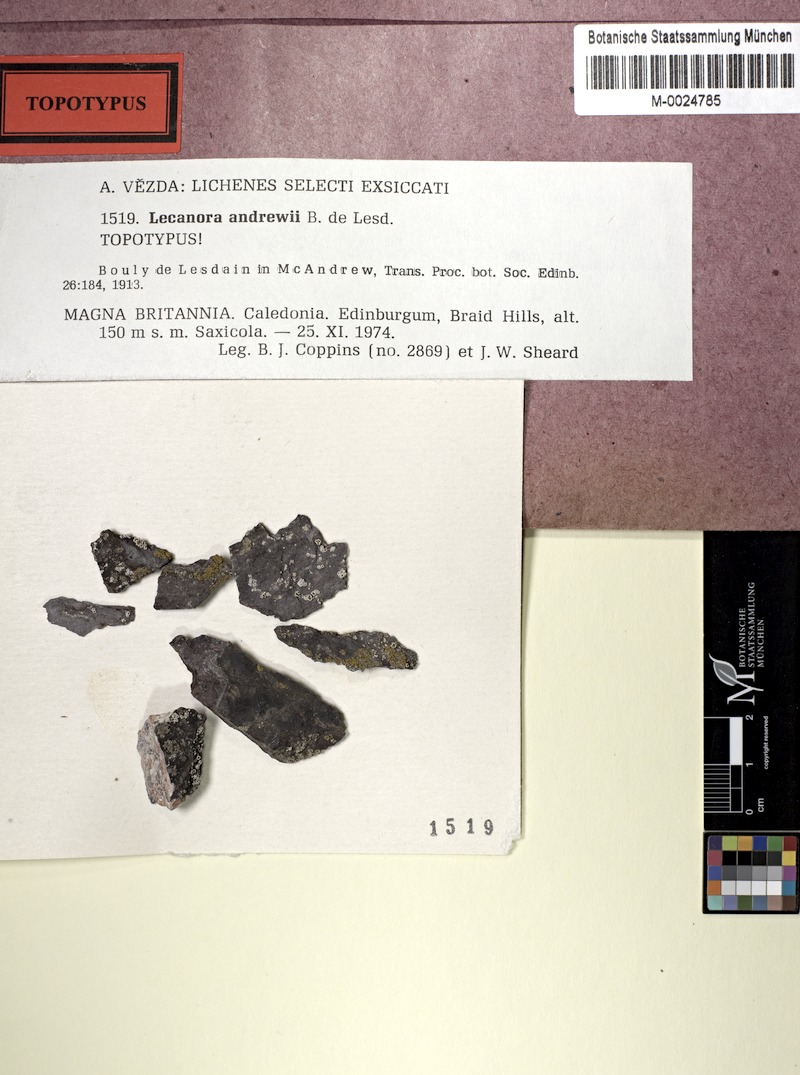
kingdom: Fungi
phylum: Ascomycota
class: Lecanoromycetes
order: Lecanorales
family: Lecanoraceae
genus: Polyozosia
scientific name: Polyozosia andrewii
